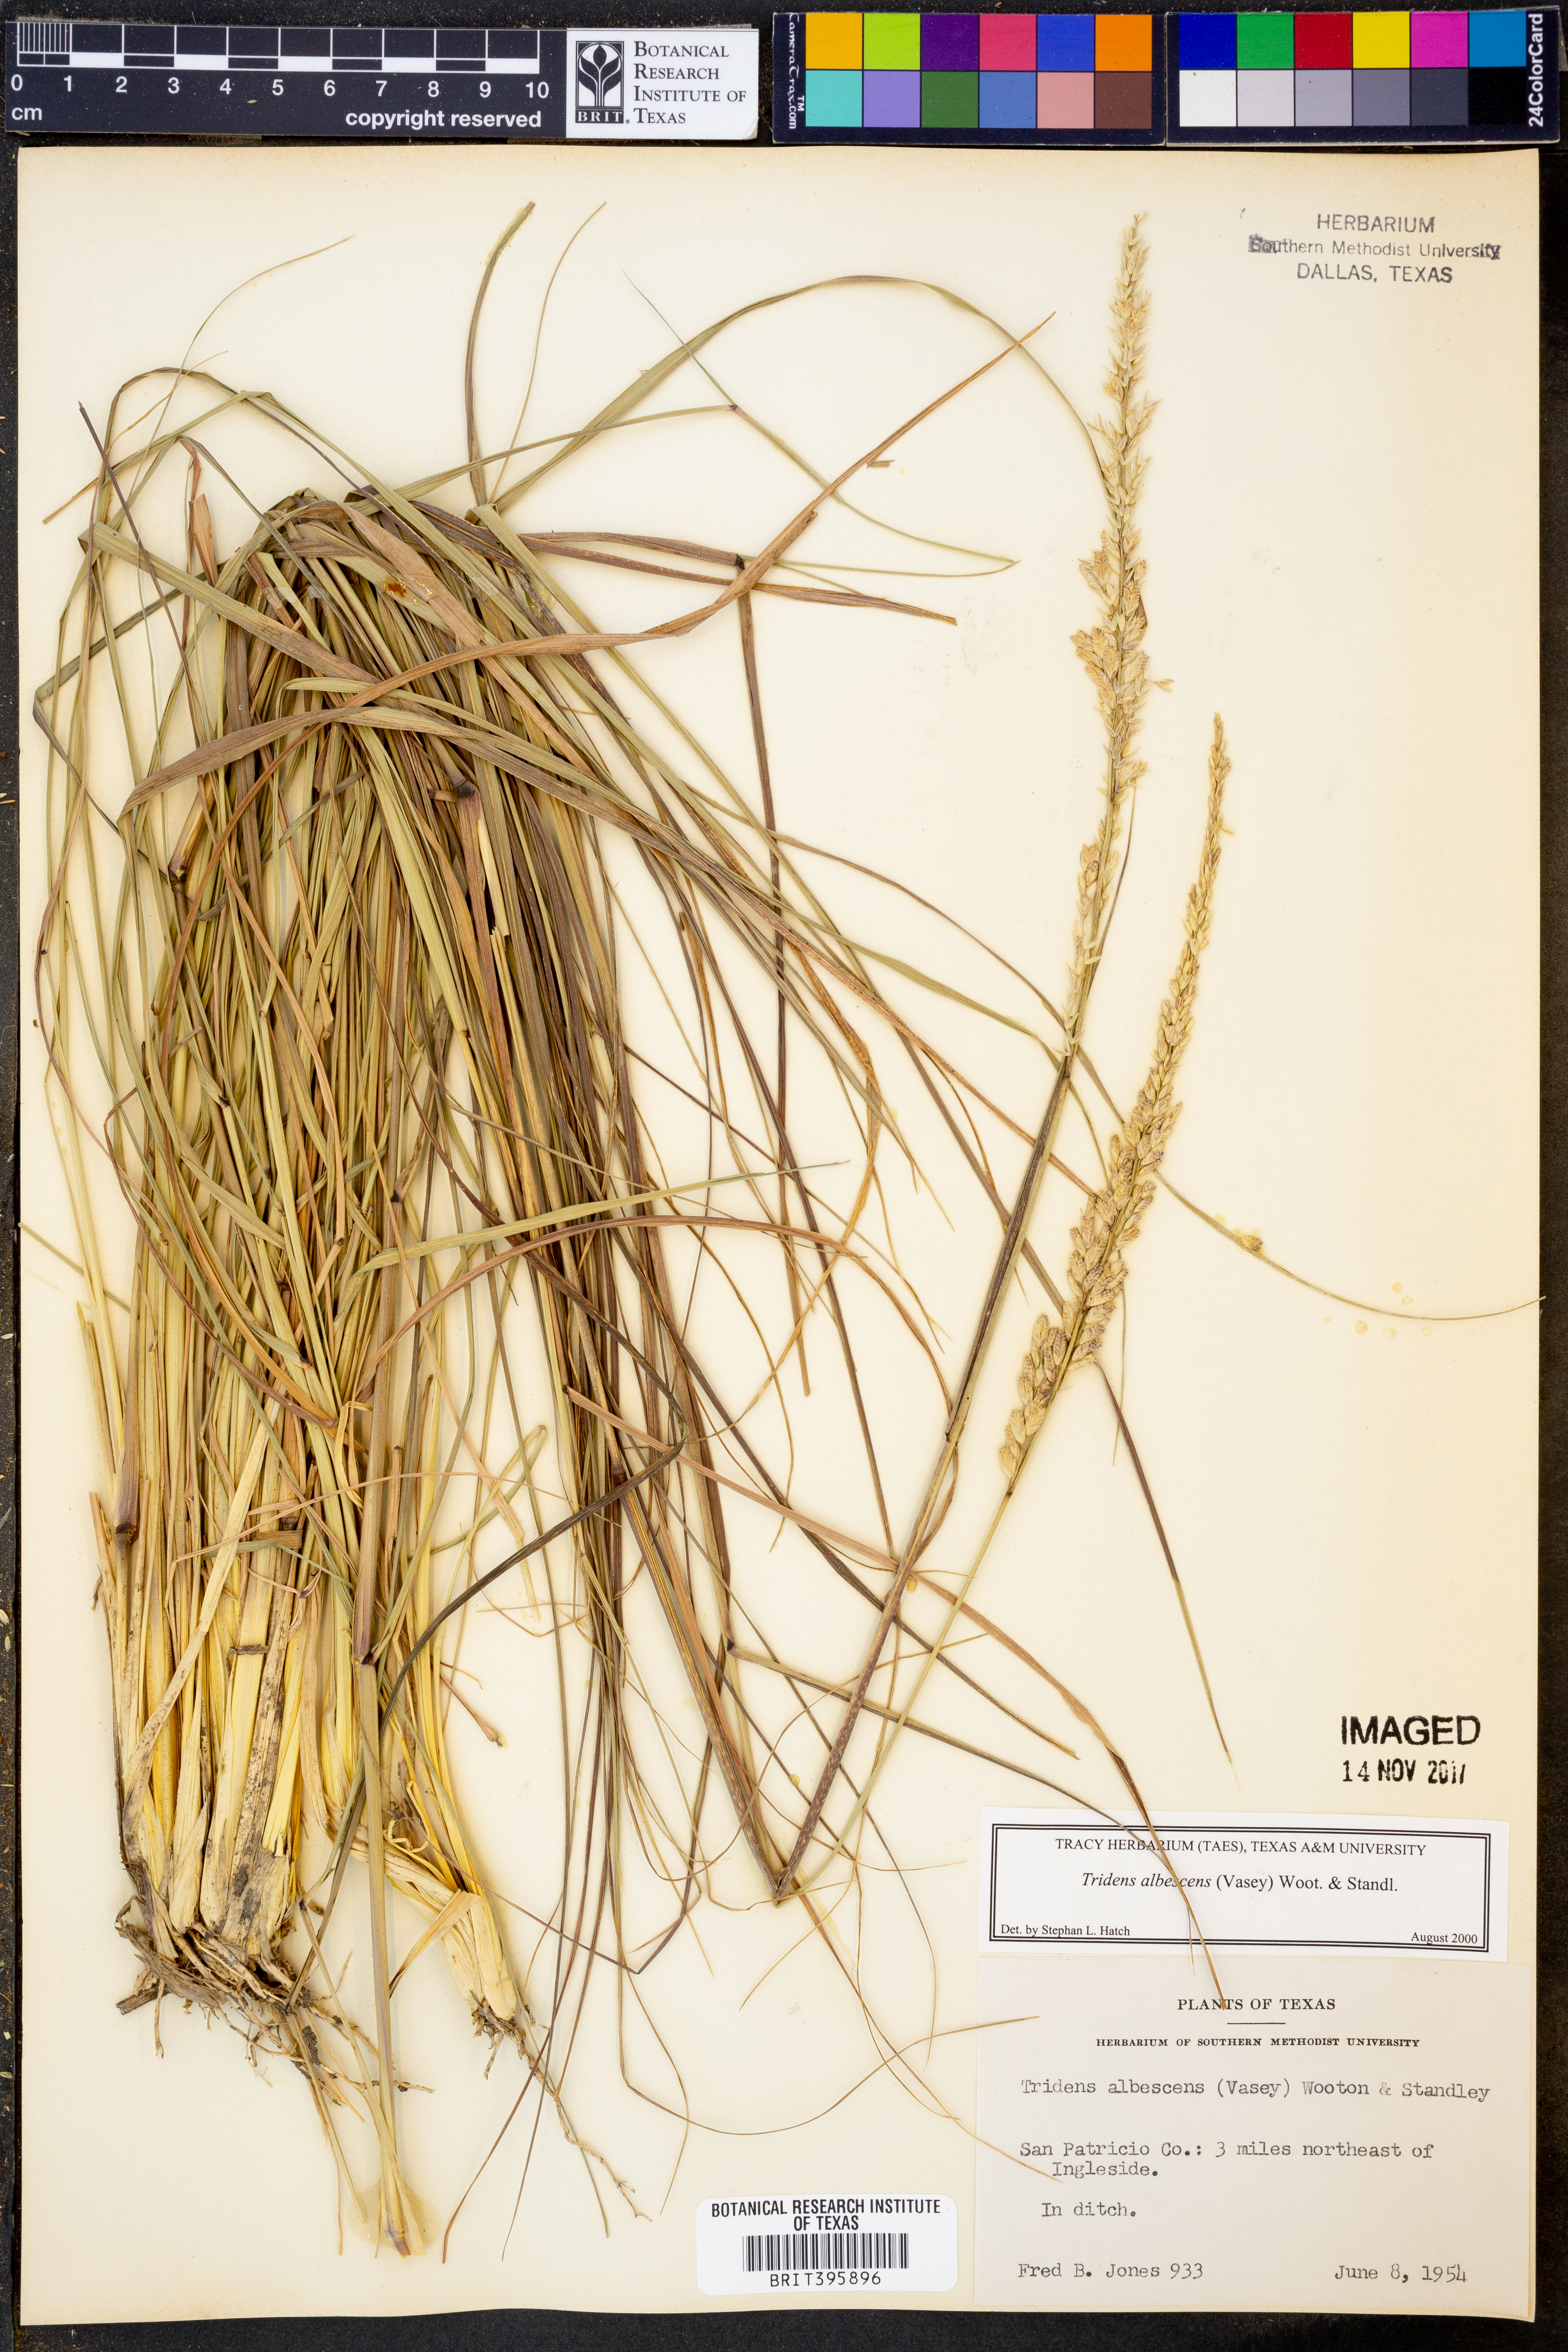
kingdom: Plantae
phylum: Tracheophyta
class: Liliopsida
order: Poales
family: Poaceae
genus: Tridens
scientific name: Tridens albescens
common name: White tridens
